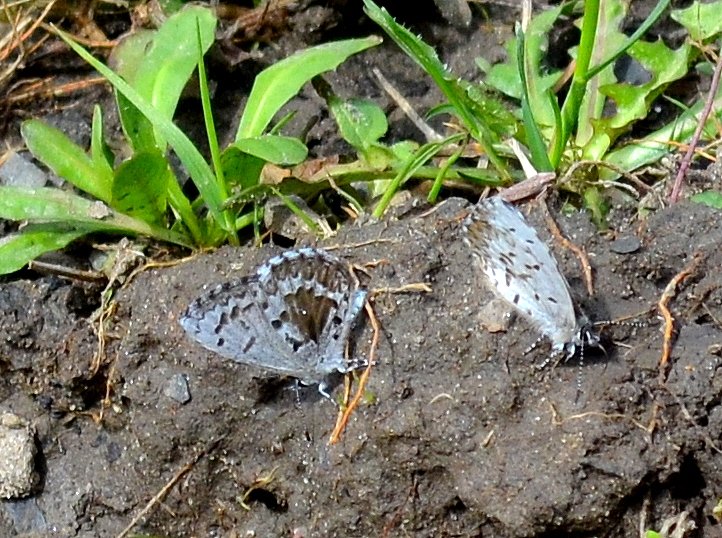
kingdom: Animalia
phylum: Arthropoda
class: Insecta
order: Lepidoptera
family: Lycaenidae
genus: Celastrina
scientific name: Celastrina lucia
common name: Northern Spring Azure
